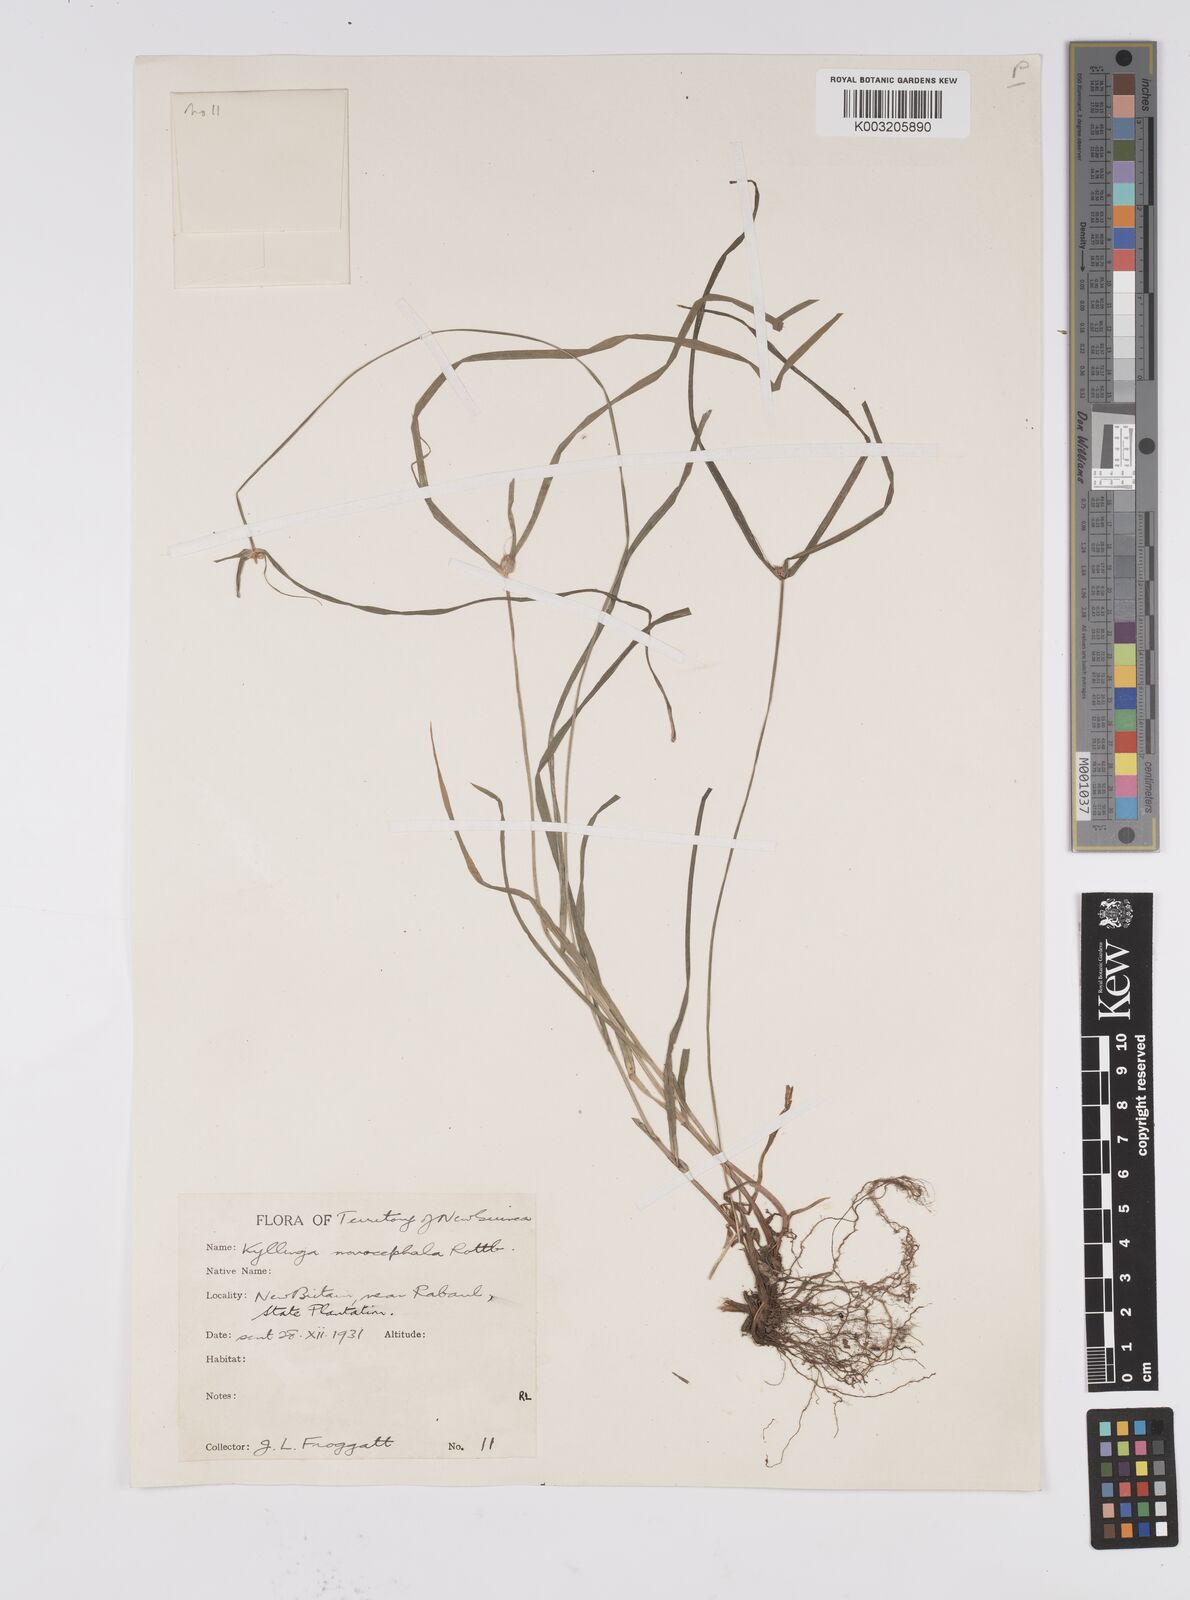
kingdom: Plantae
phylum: Tracheophyta
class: Liliopsida
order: Poales
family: Cyperaceae
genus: Cyperus
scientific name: Cyperus nemoralis
